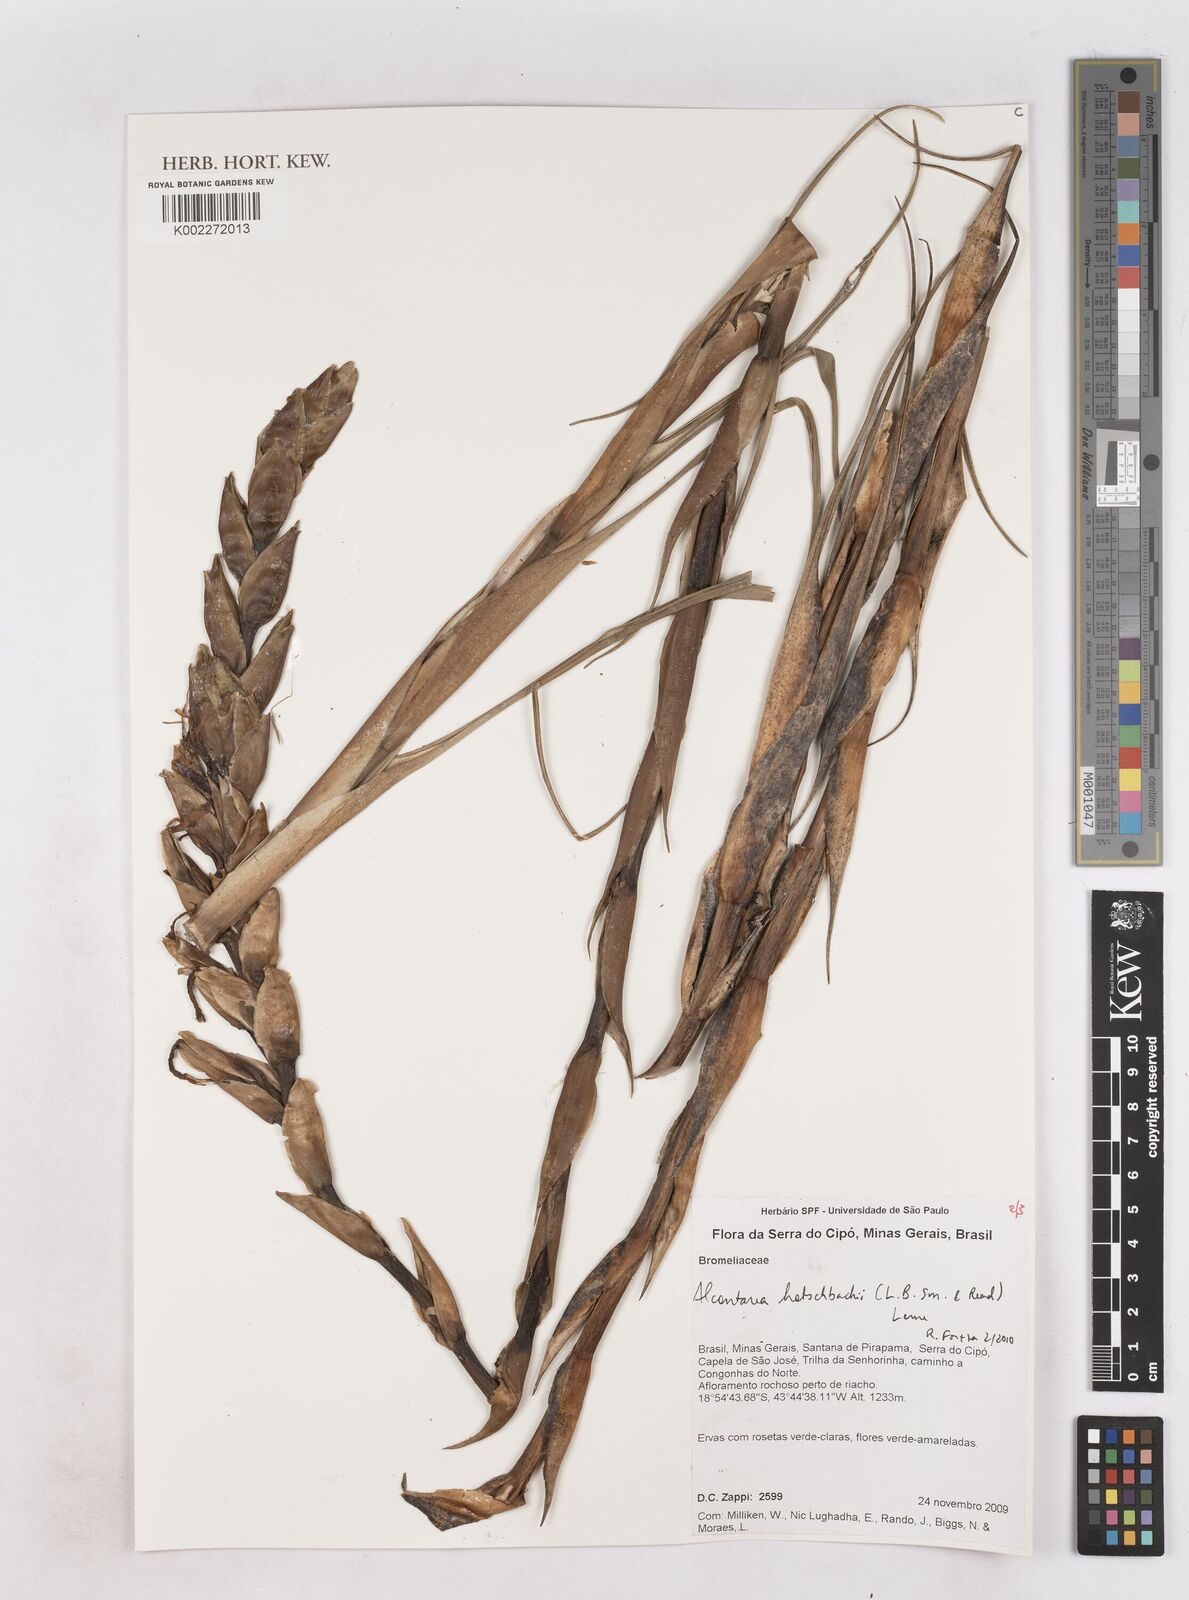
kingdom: Plantae
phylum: Tracheophyta
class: Liliopsida
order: Poales
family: Bromeliaceae
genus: Waltillia
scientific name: Waltillia hatschbachii
